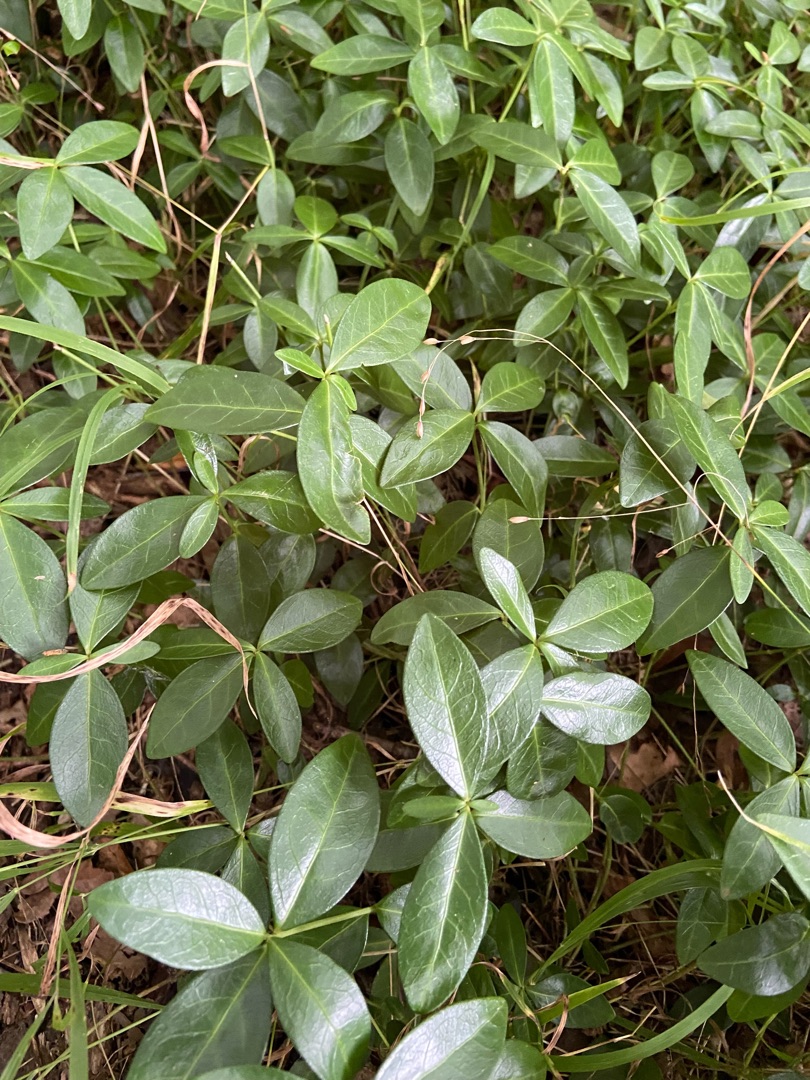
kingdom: Plantae
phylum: Tracheophyta
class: Magnoliopsida
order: Gentianales
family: Apocynaceae
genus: Vinca
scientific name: Vinca minor
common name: Liden singrøn
